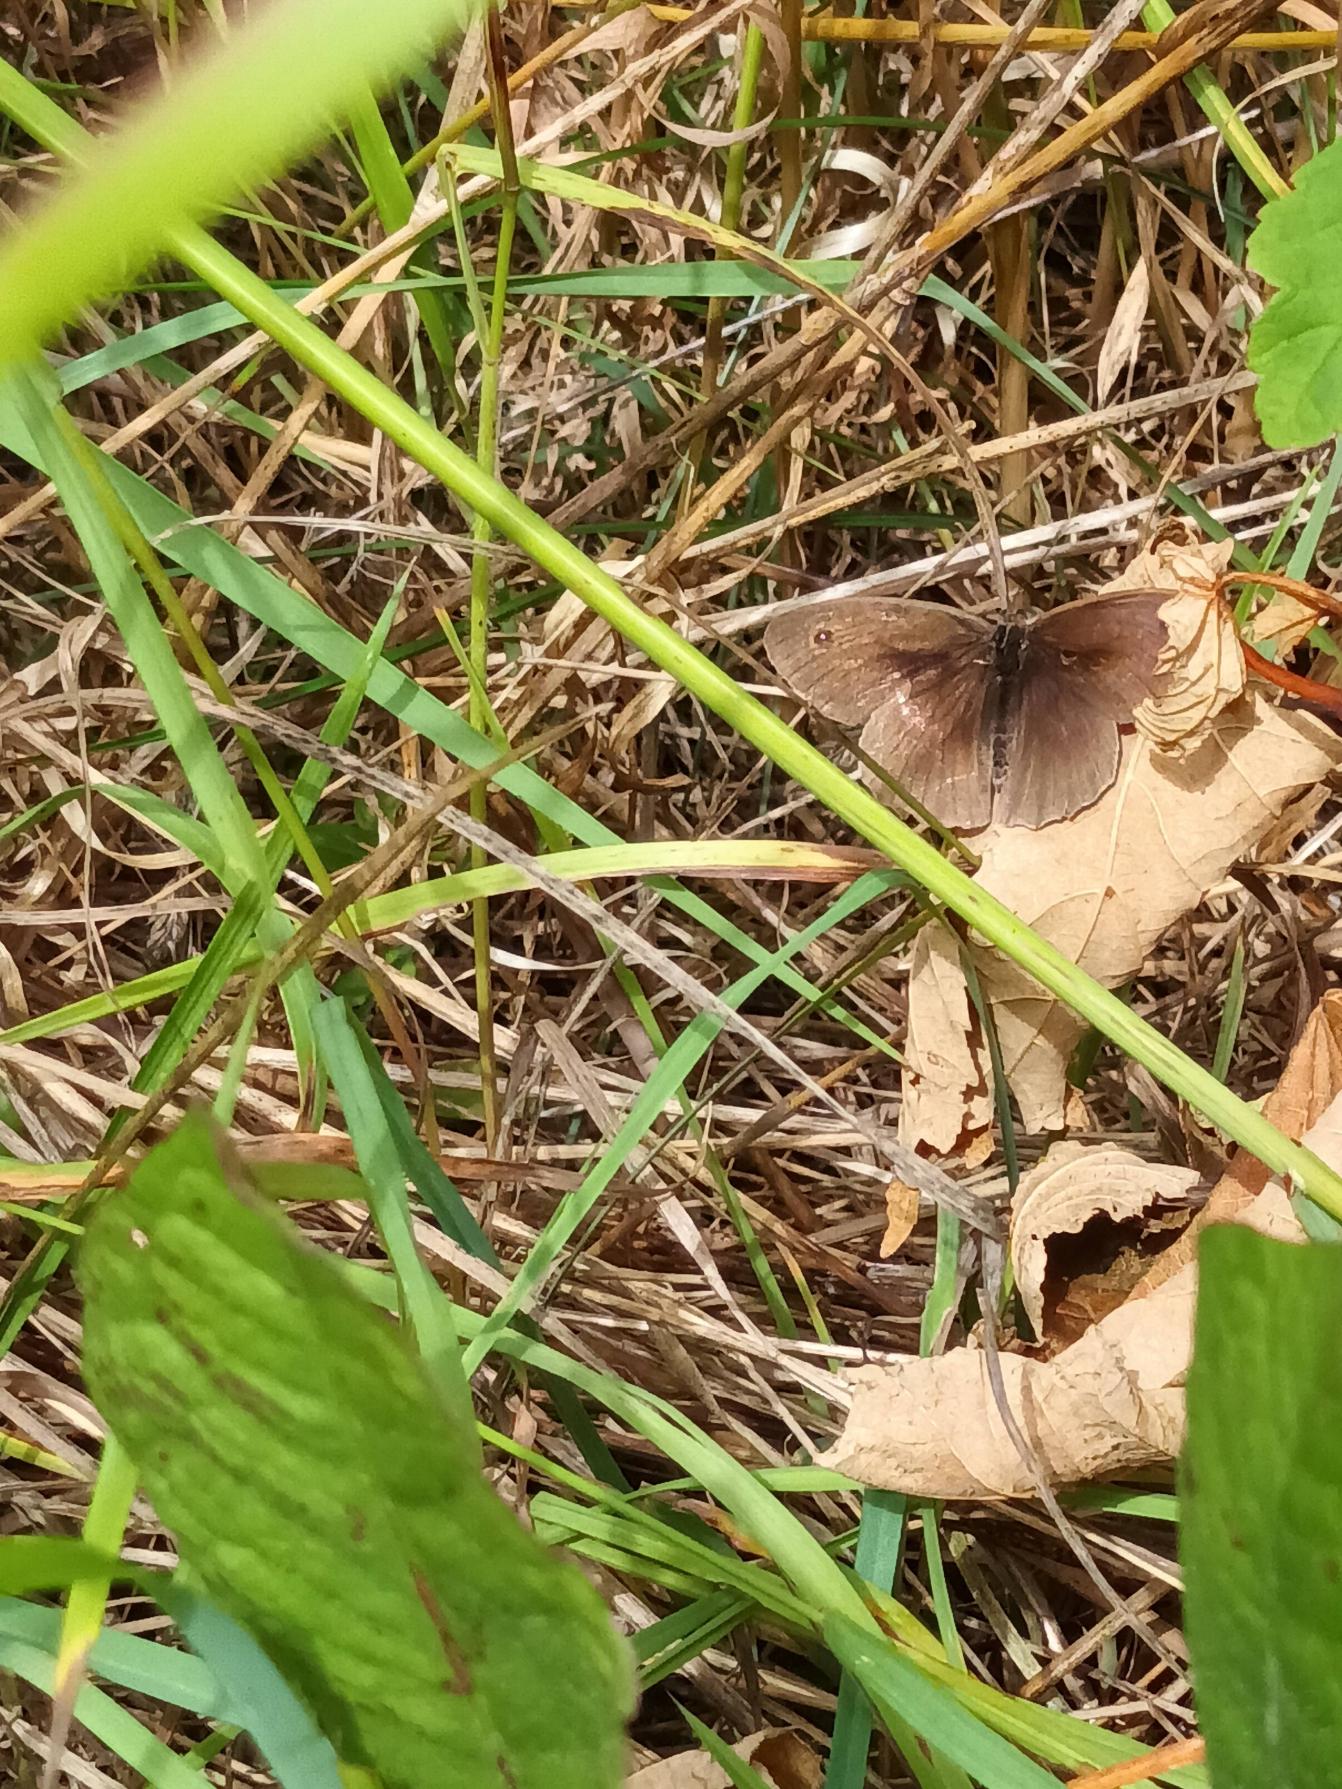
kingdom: Animalia
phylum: Arthropoda
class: Insecta
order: Lepidoptera
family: Nymphalidae
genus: Maniola
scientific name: Maniola jurtina
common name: Græsrandøje
